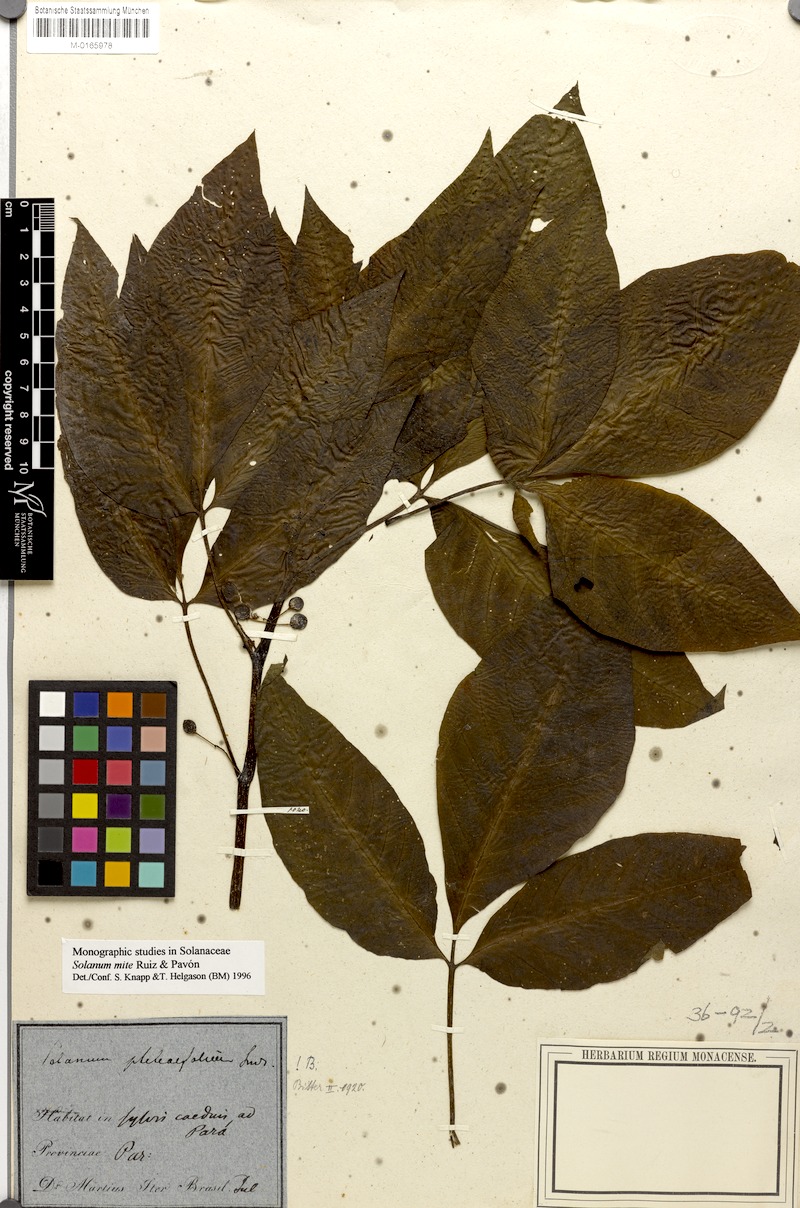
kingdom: Plantae
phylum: Tracheophyta
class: Magnoliopsida
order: Solanales
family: Solanaceae
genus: Solanum
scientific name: Solanum mite
